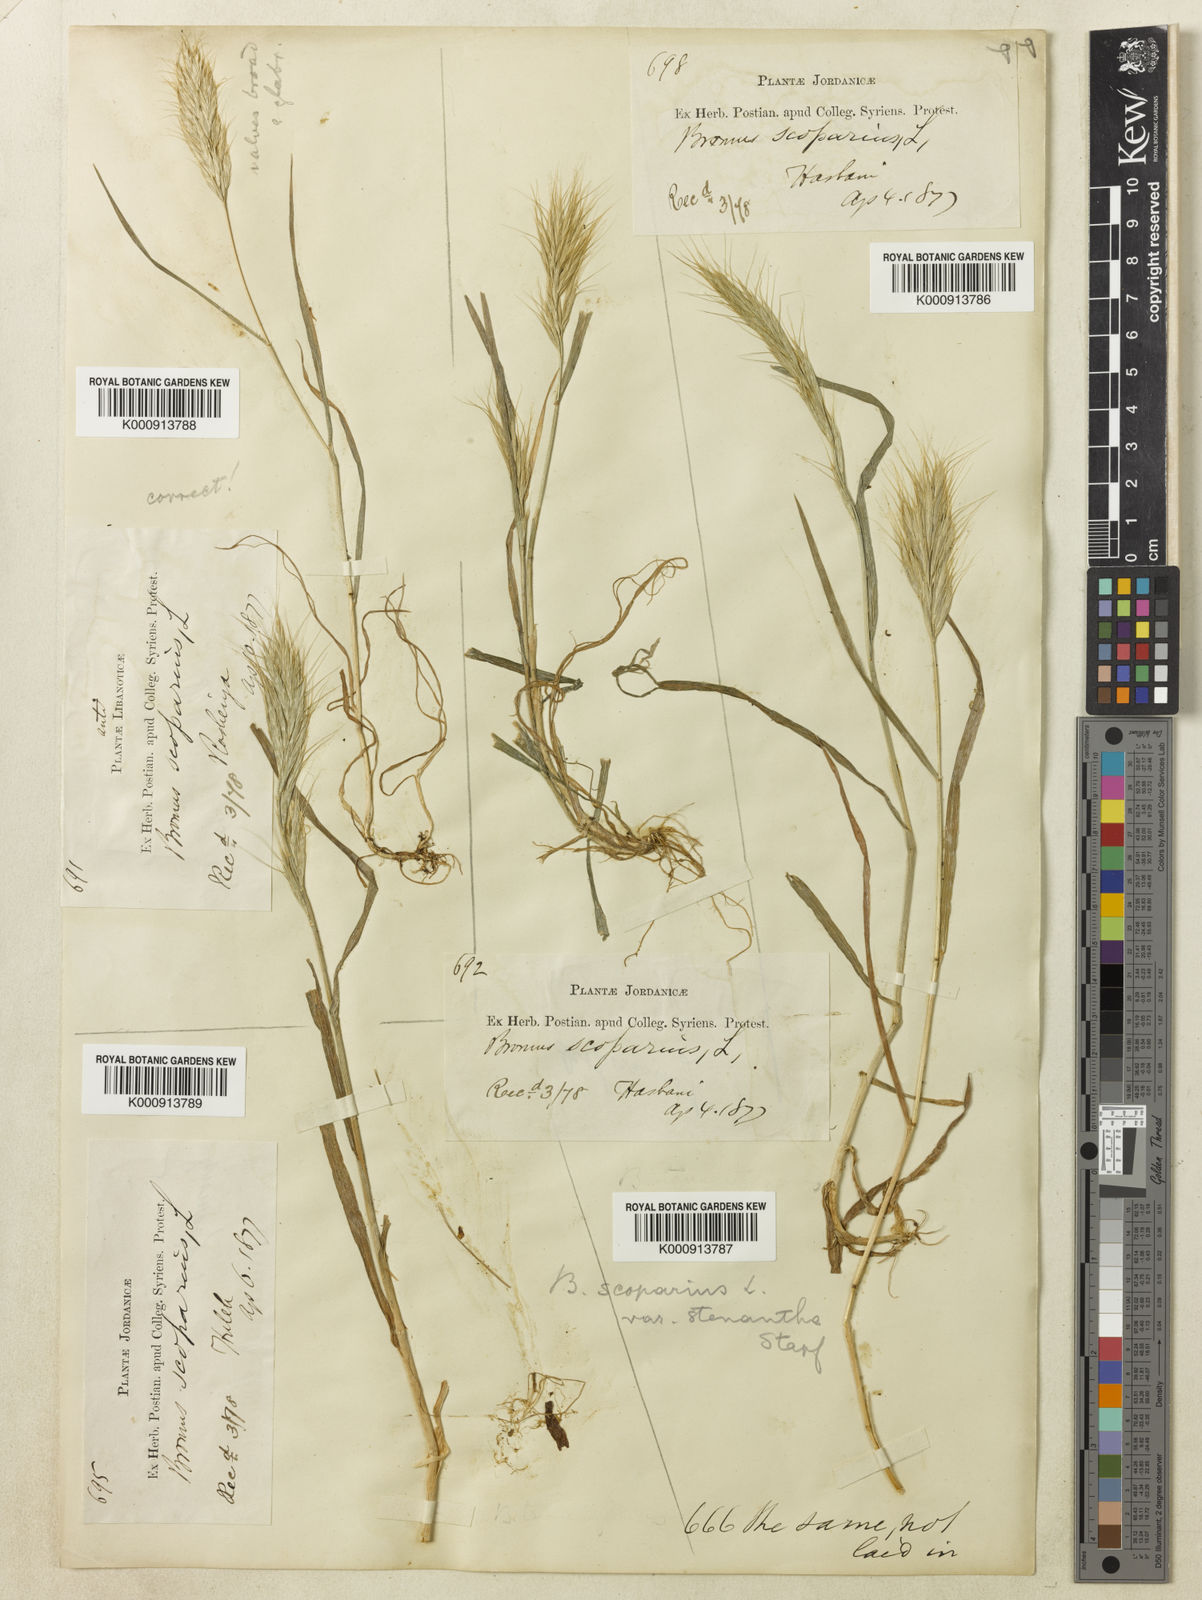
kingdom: Plantae
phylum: Tracheophyta
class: Liliopsida
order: Poales
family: Poaceae
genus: Bromus
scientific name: Bromus scoparius
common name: Broom brome
